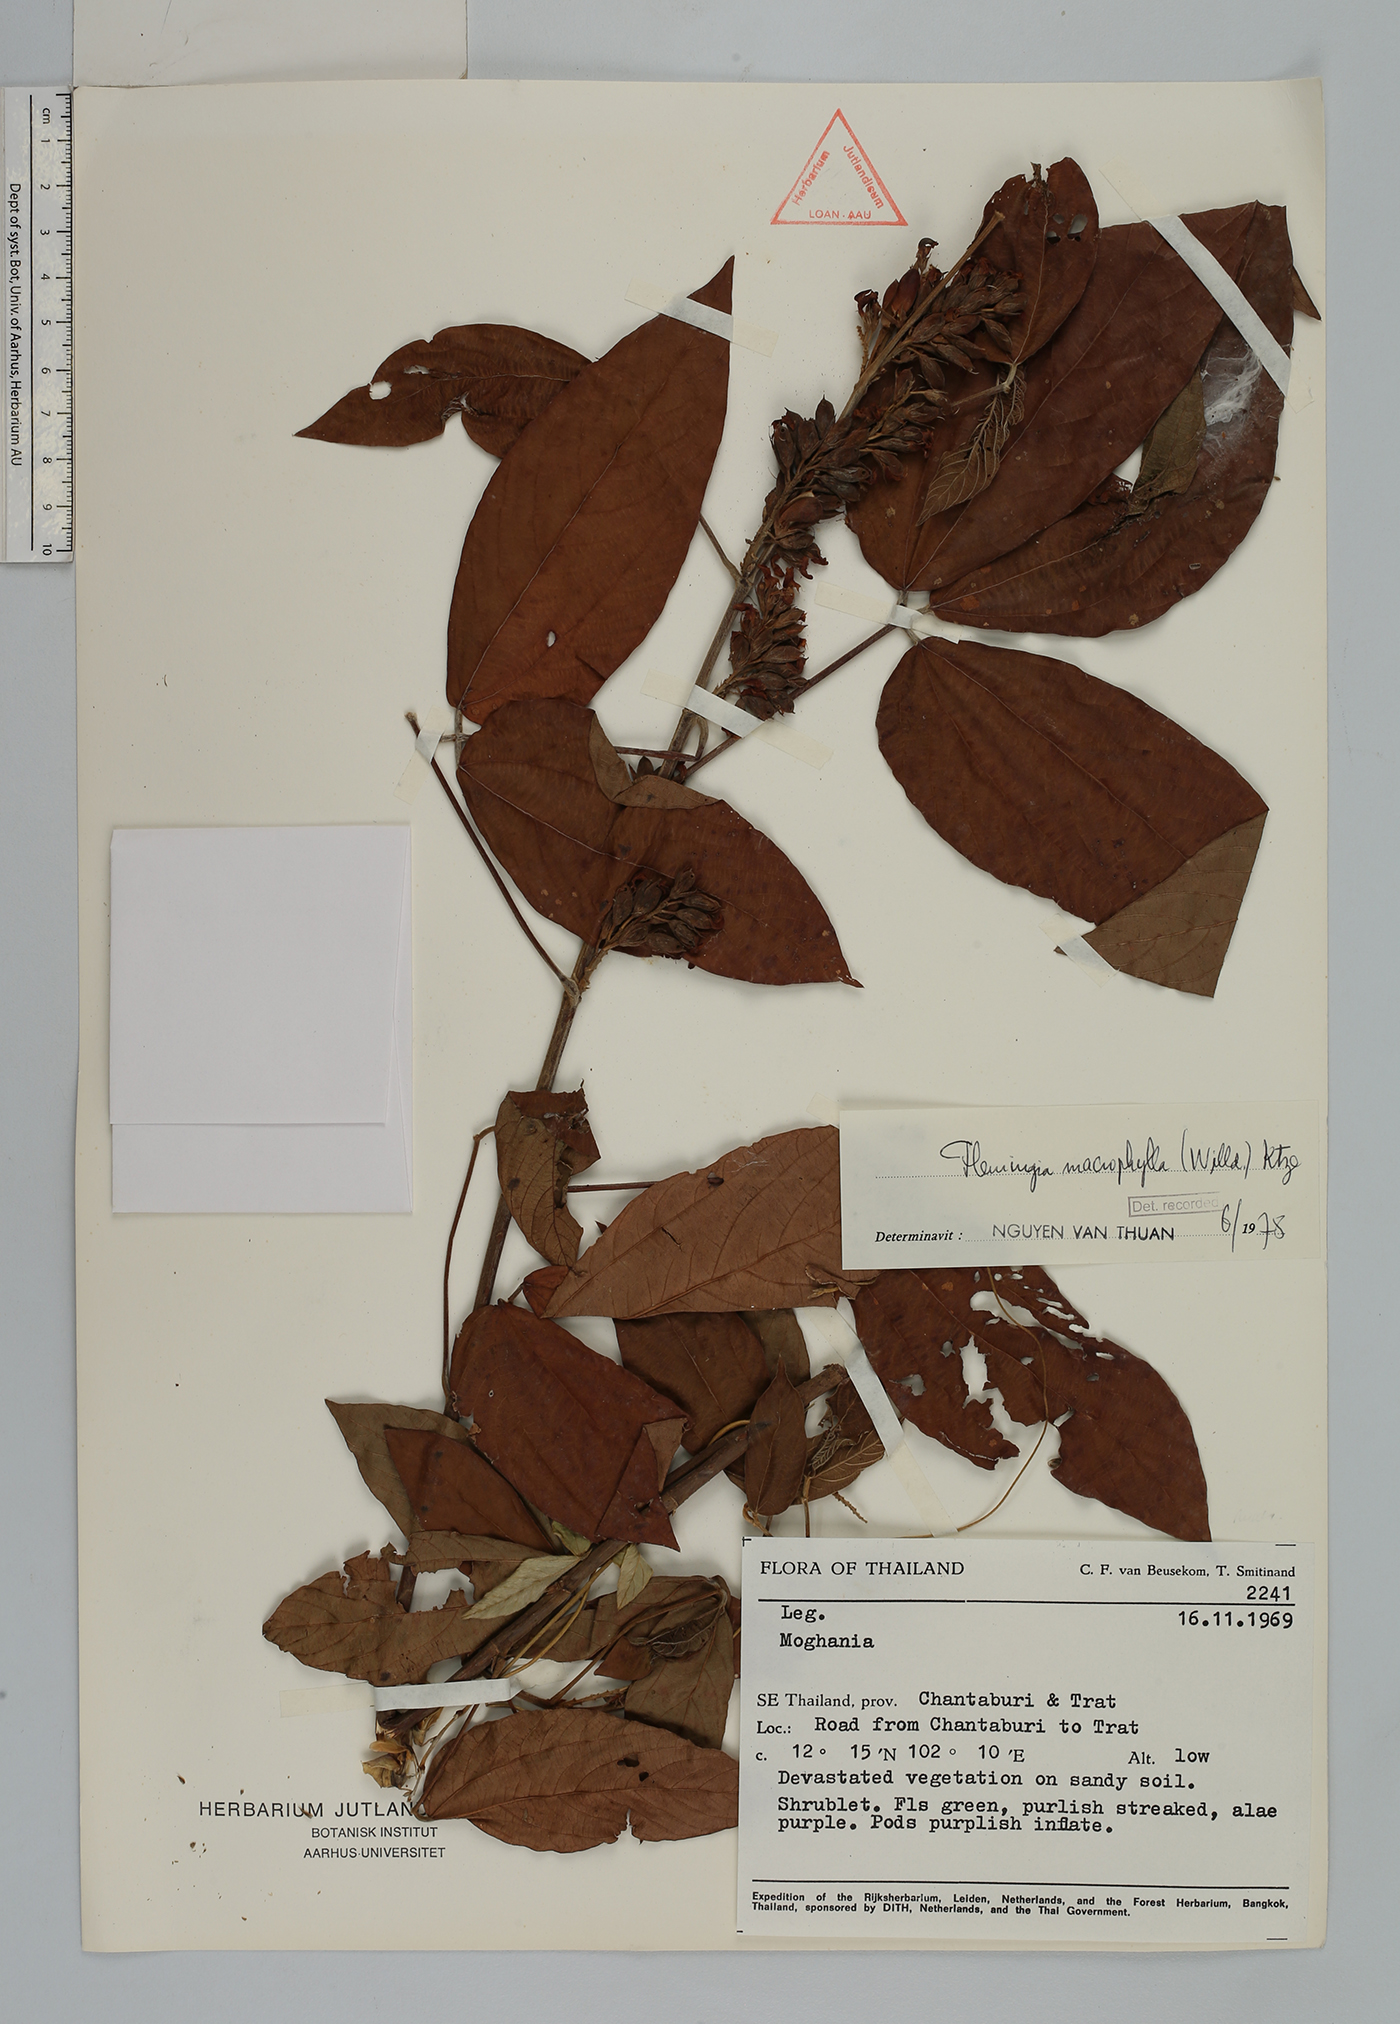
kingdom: Plantae
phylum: Tracheophyta
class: Magnoliopsida
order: Fabales
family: Fabaceae
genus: Flemingia
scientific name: Flemingia macrophylla
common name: Flemingia
